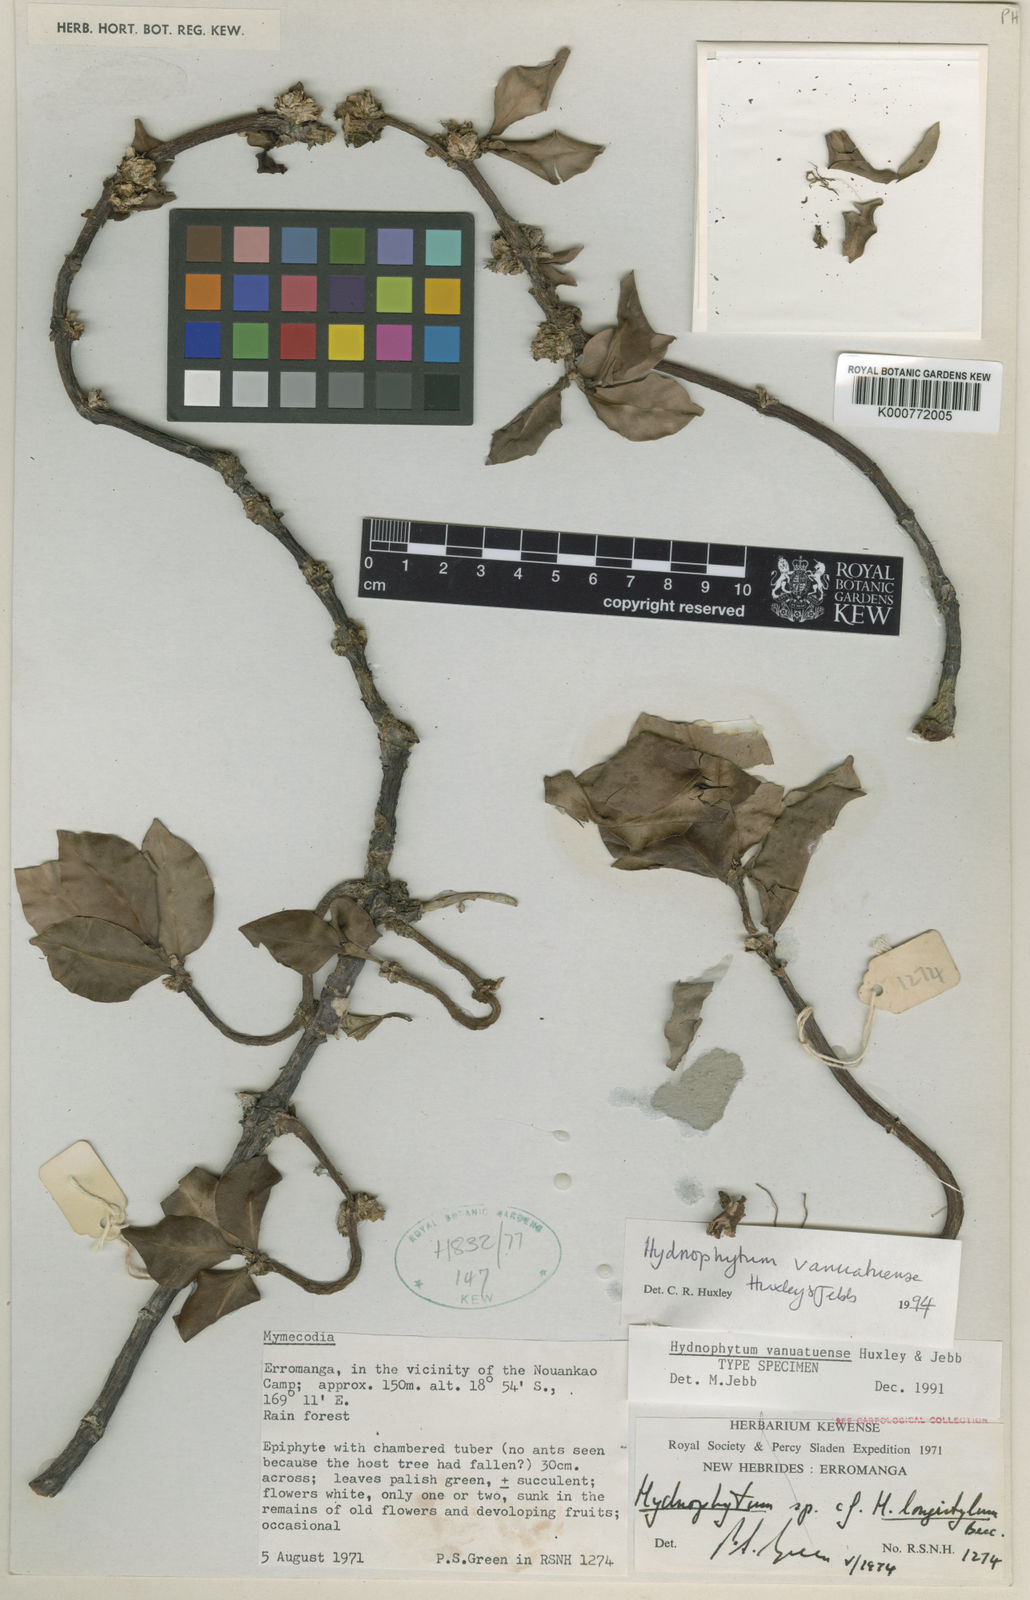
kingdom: Plantae
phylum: Tracheophyta
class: Magnoliopsida
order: Gentianales
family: Rubiaceae
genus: Hydnophytum
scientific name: Hydnophytum
